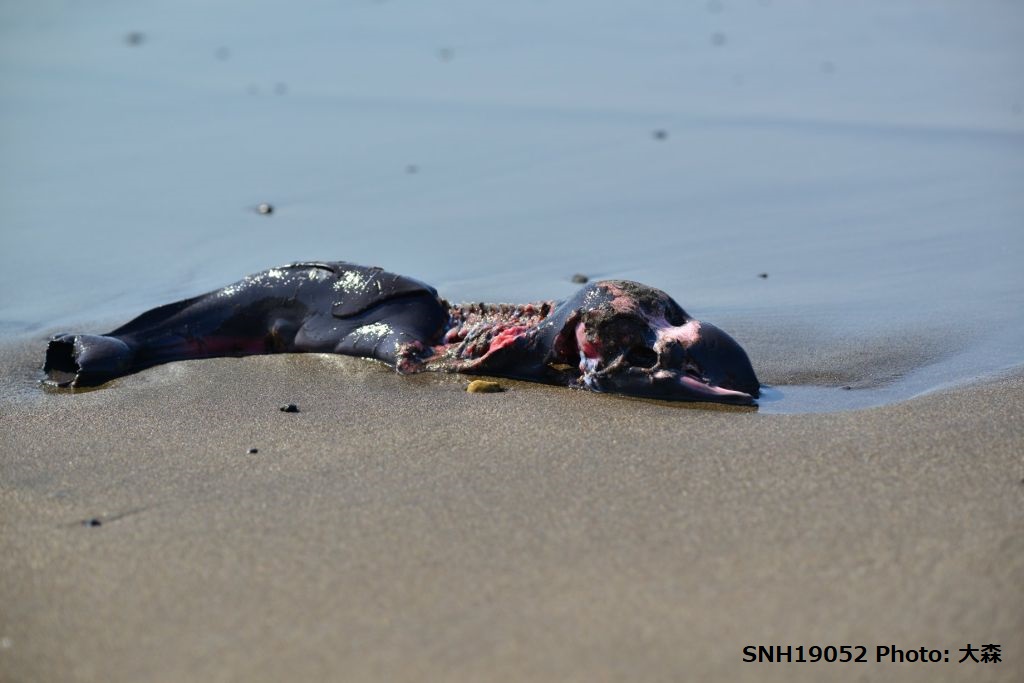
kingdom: Animalia
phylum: Chordata
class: Mammalia
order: Cetacea
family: Phocoenidae
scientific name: Phocoenidae
